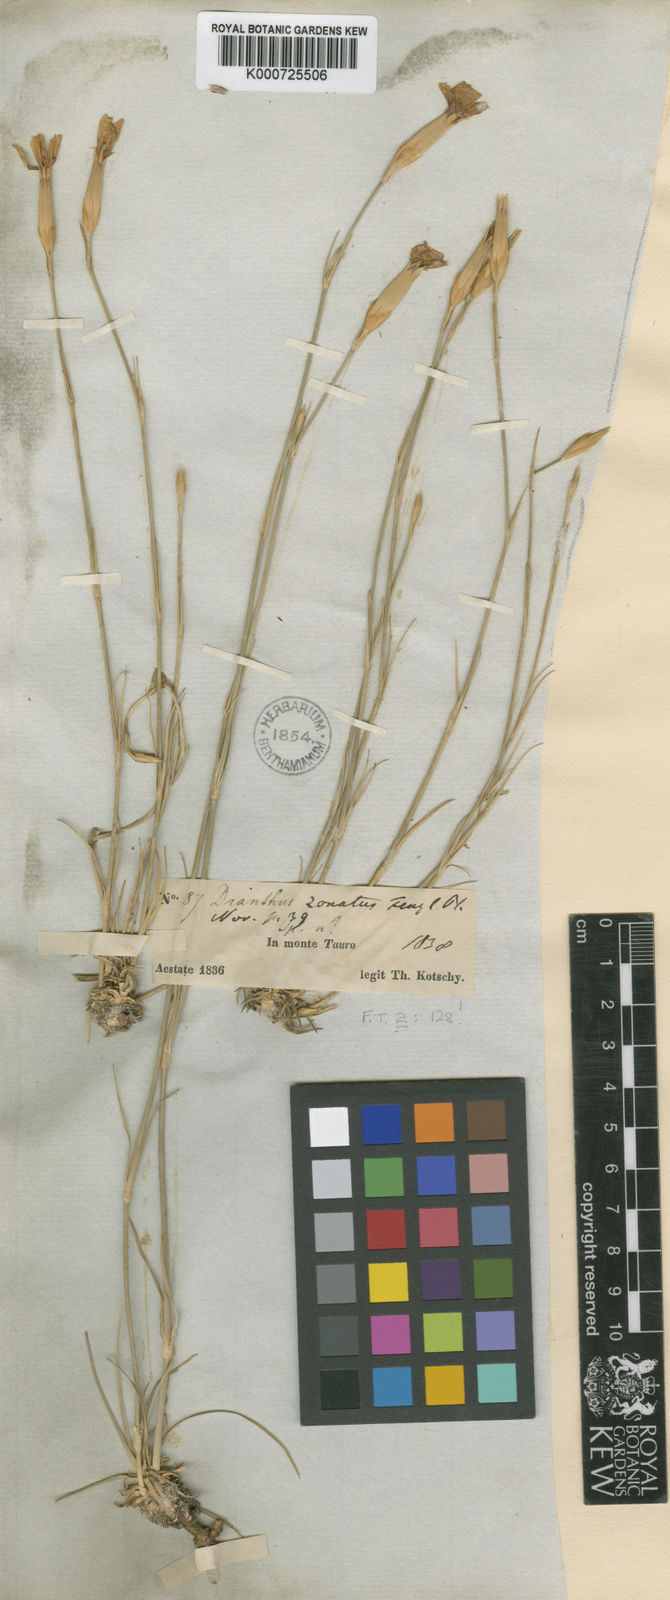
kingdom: Plantae
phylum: Tracheophyta
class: Magnoliopsida
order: Caryophyllales
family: Caryophyllaceae
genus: Dianthus
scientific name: Dianthus zonatus
